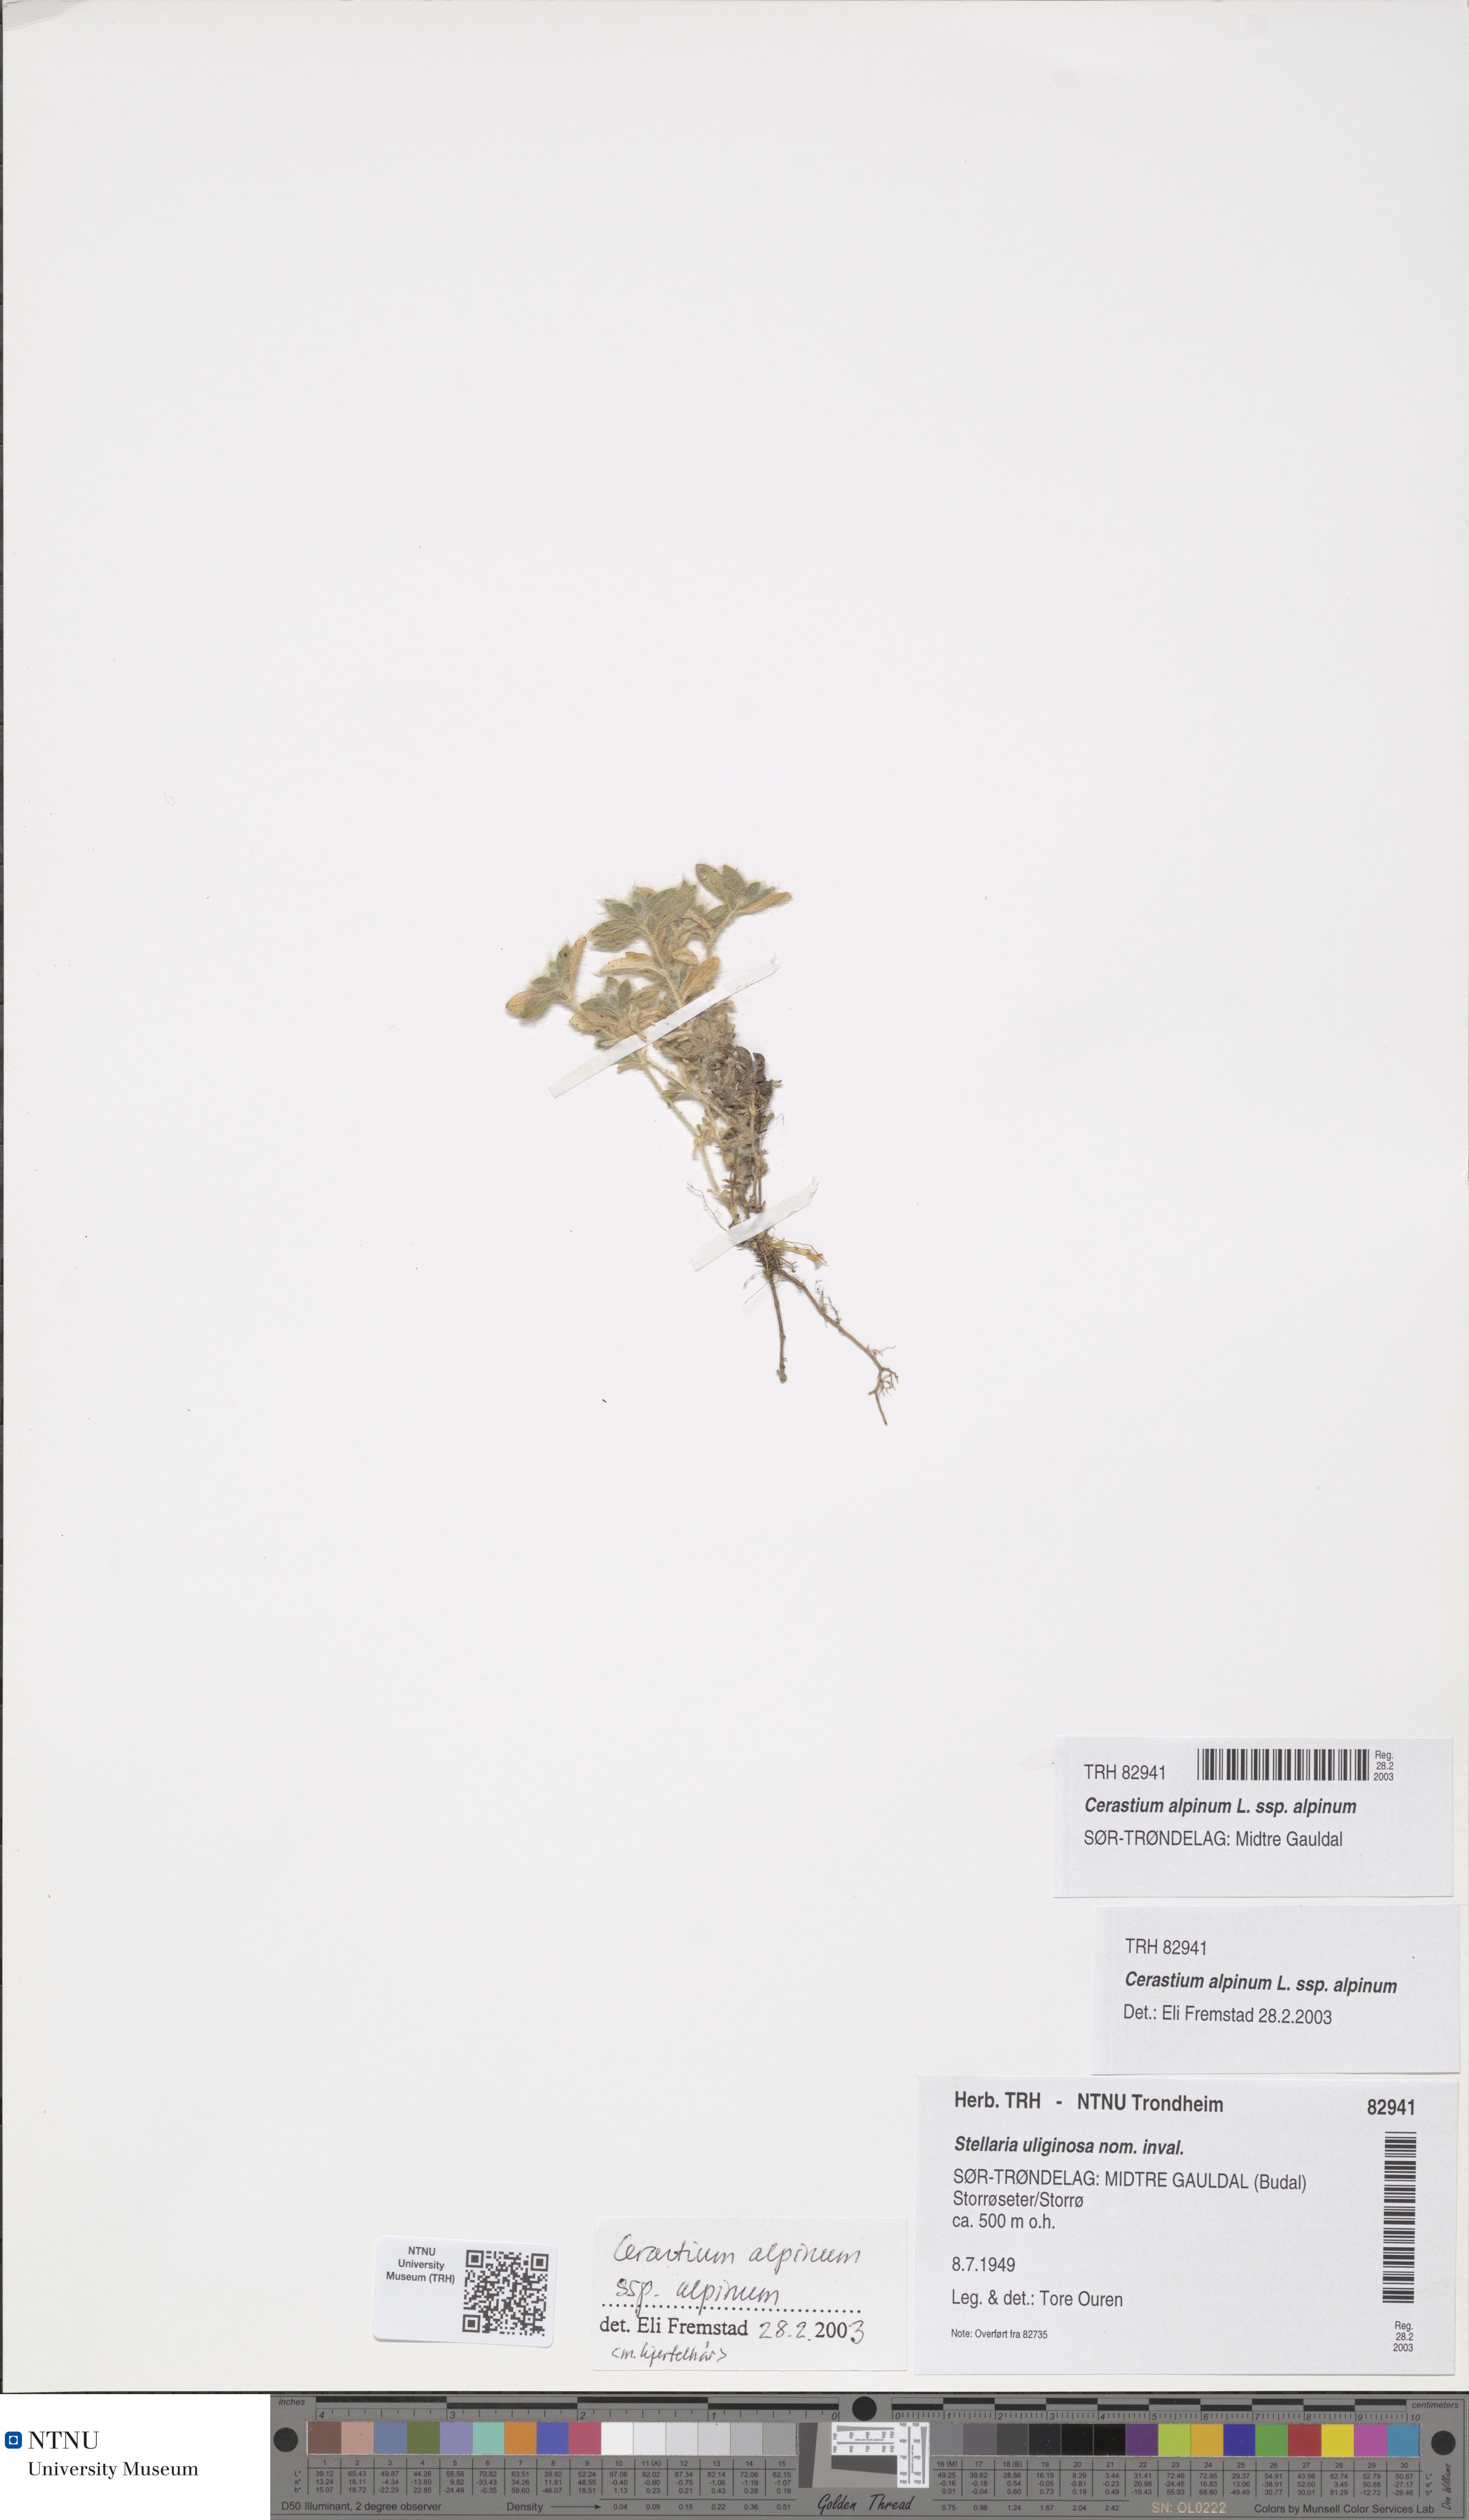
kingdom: Plantae
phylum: Tracheophyta
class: Magnoliopsida
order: Caryophyllales
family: Caryophyllaceae
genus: Cerastium
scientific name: Cerastium alpinum
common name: Alpine mouse-ear
